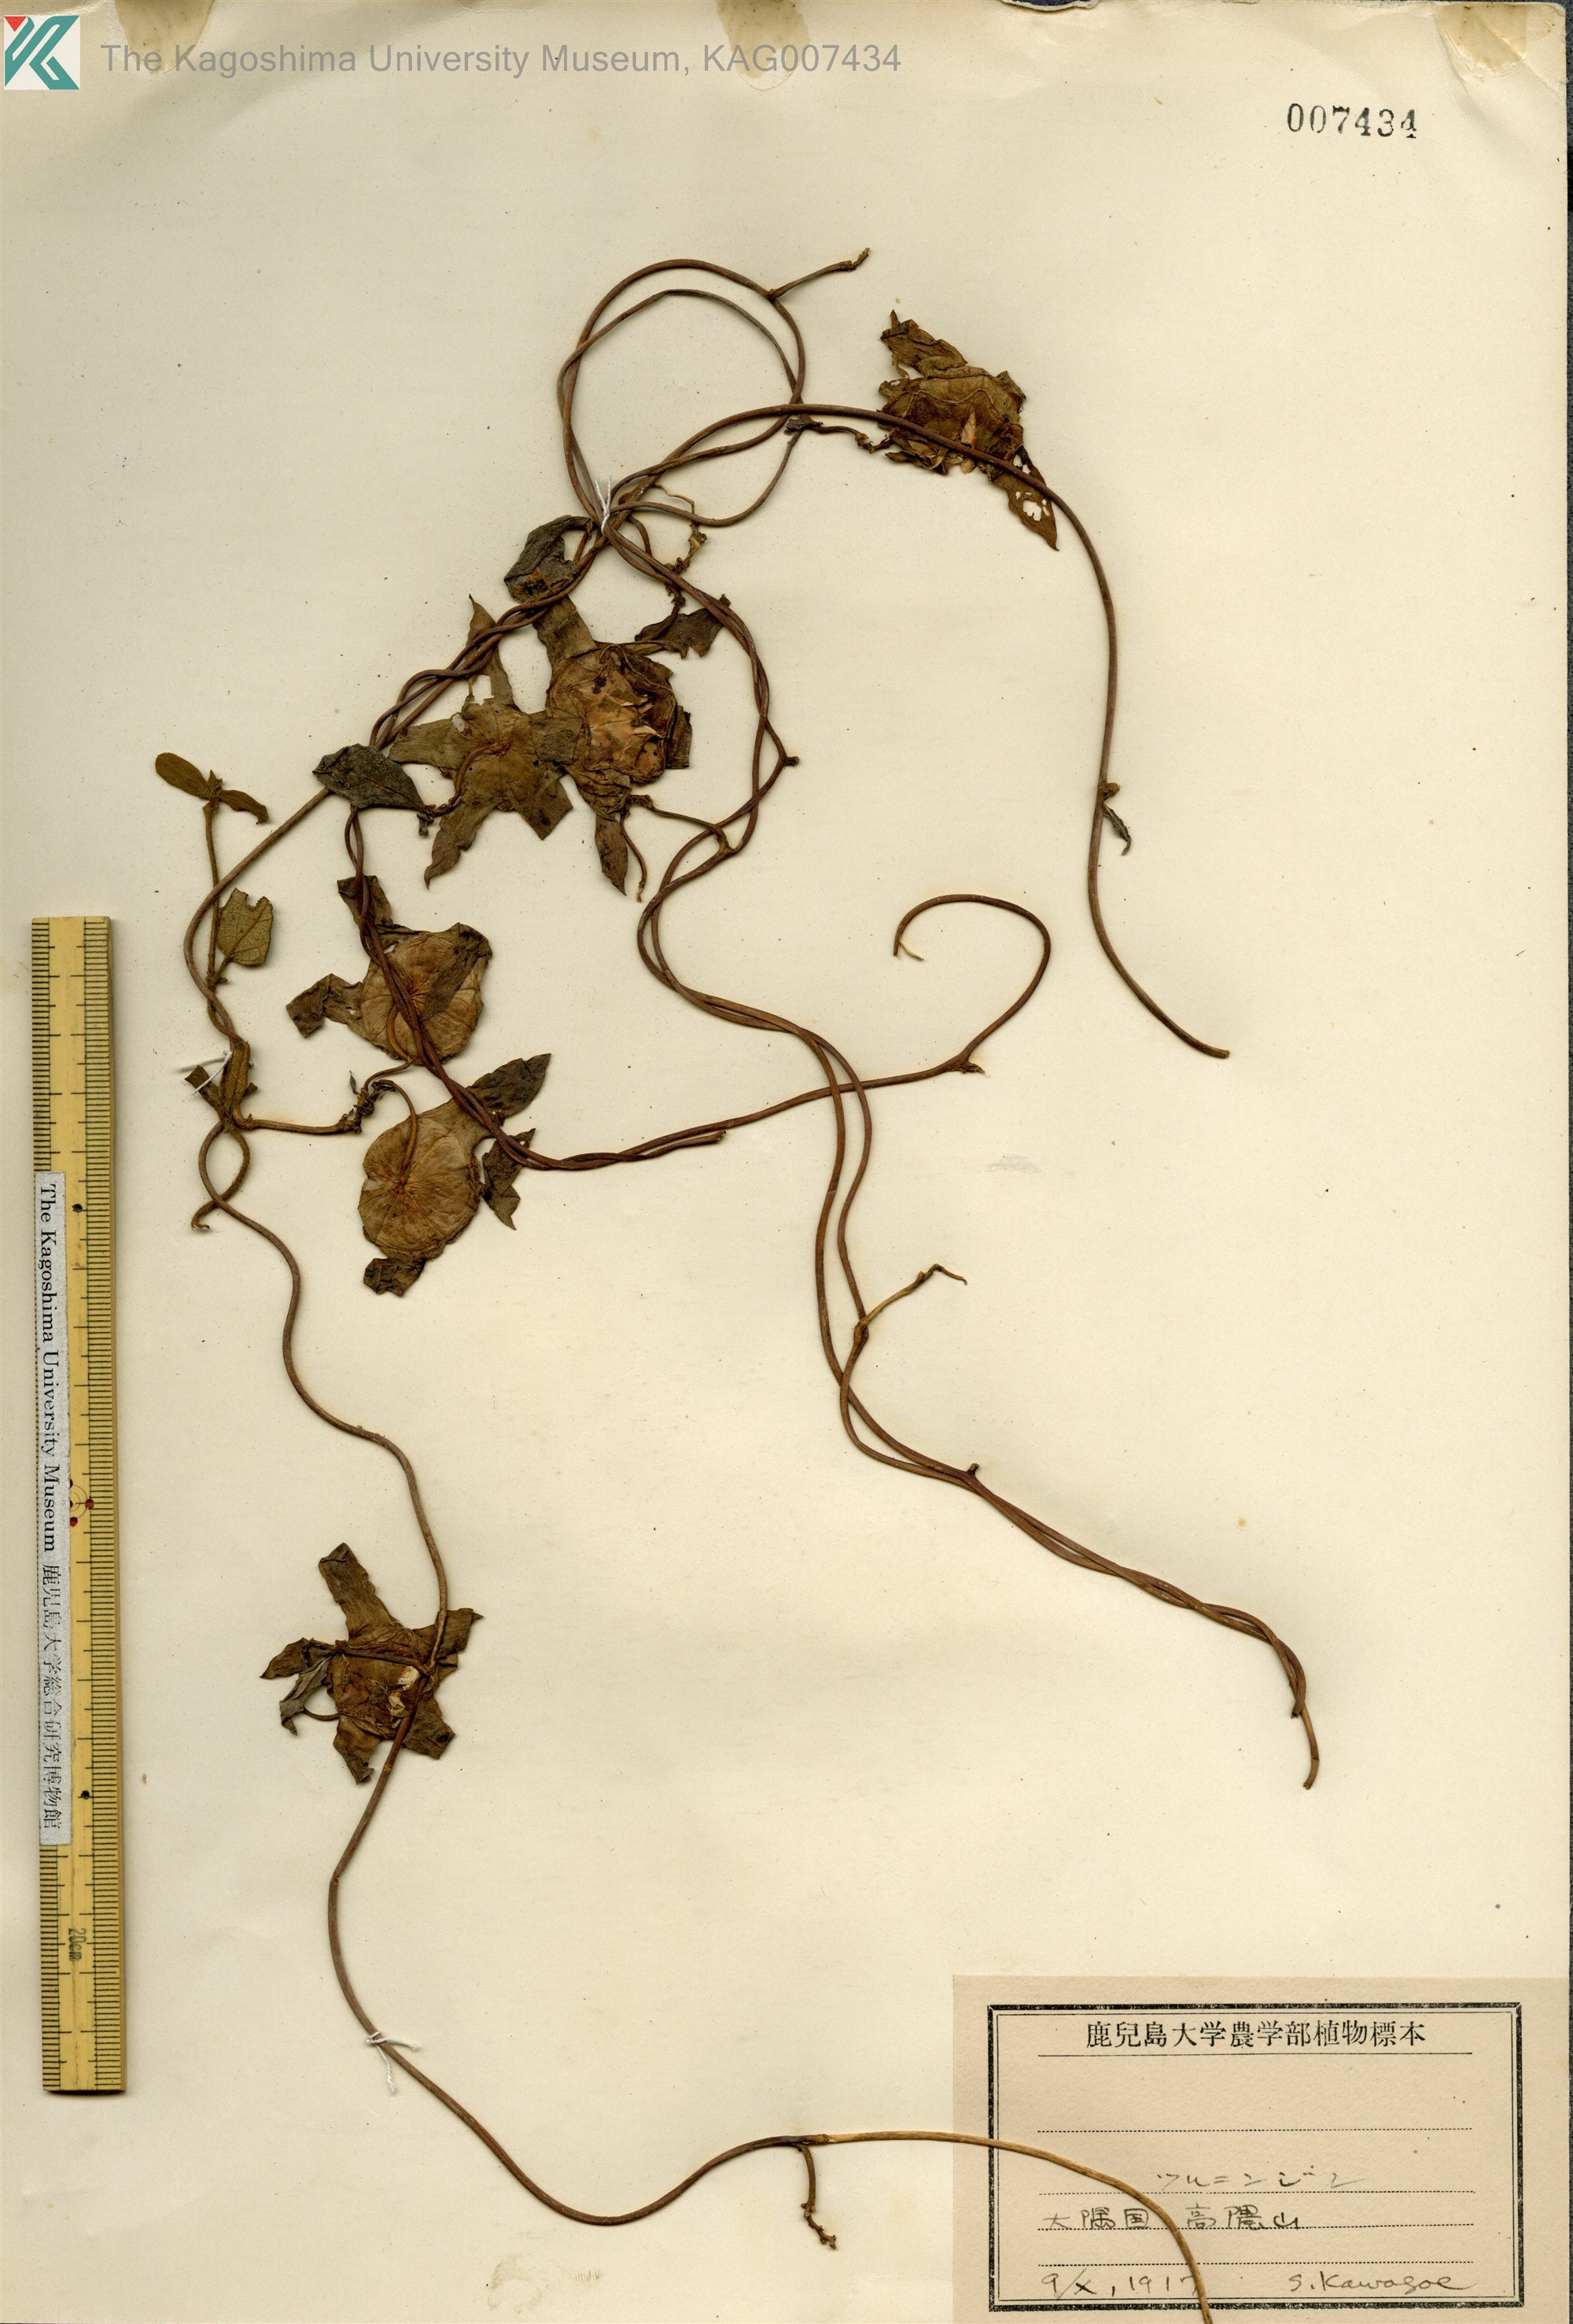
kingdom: Plantae
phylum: Tracheophyta
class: Magnoliopsida
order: Asterales
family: Campanulaceae
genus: Codonopsis
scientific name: Codonopsis lanceolata
